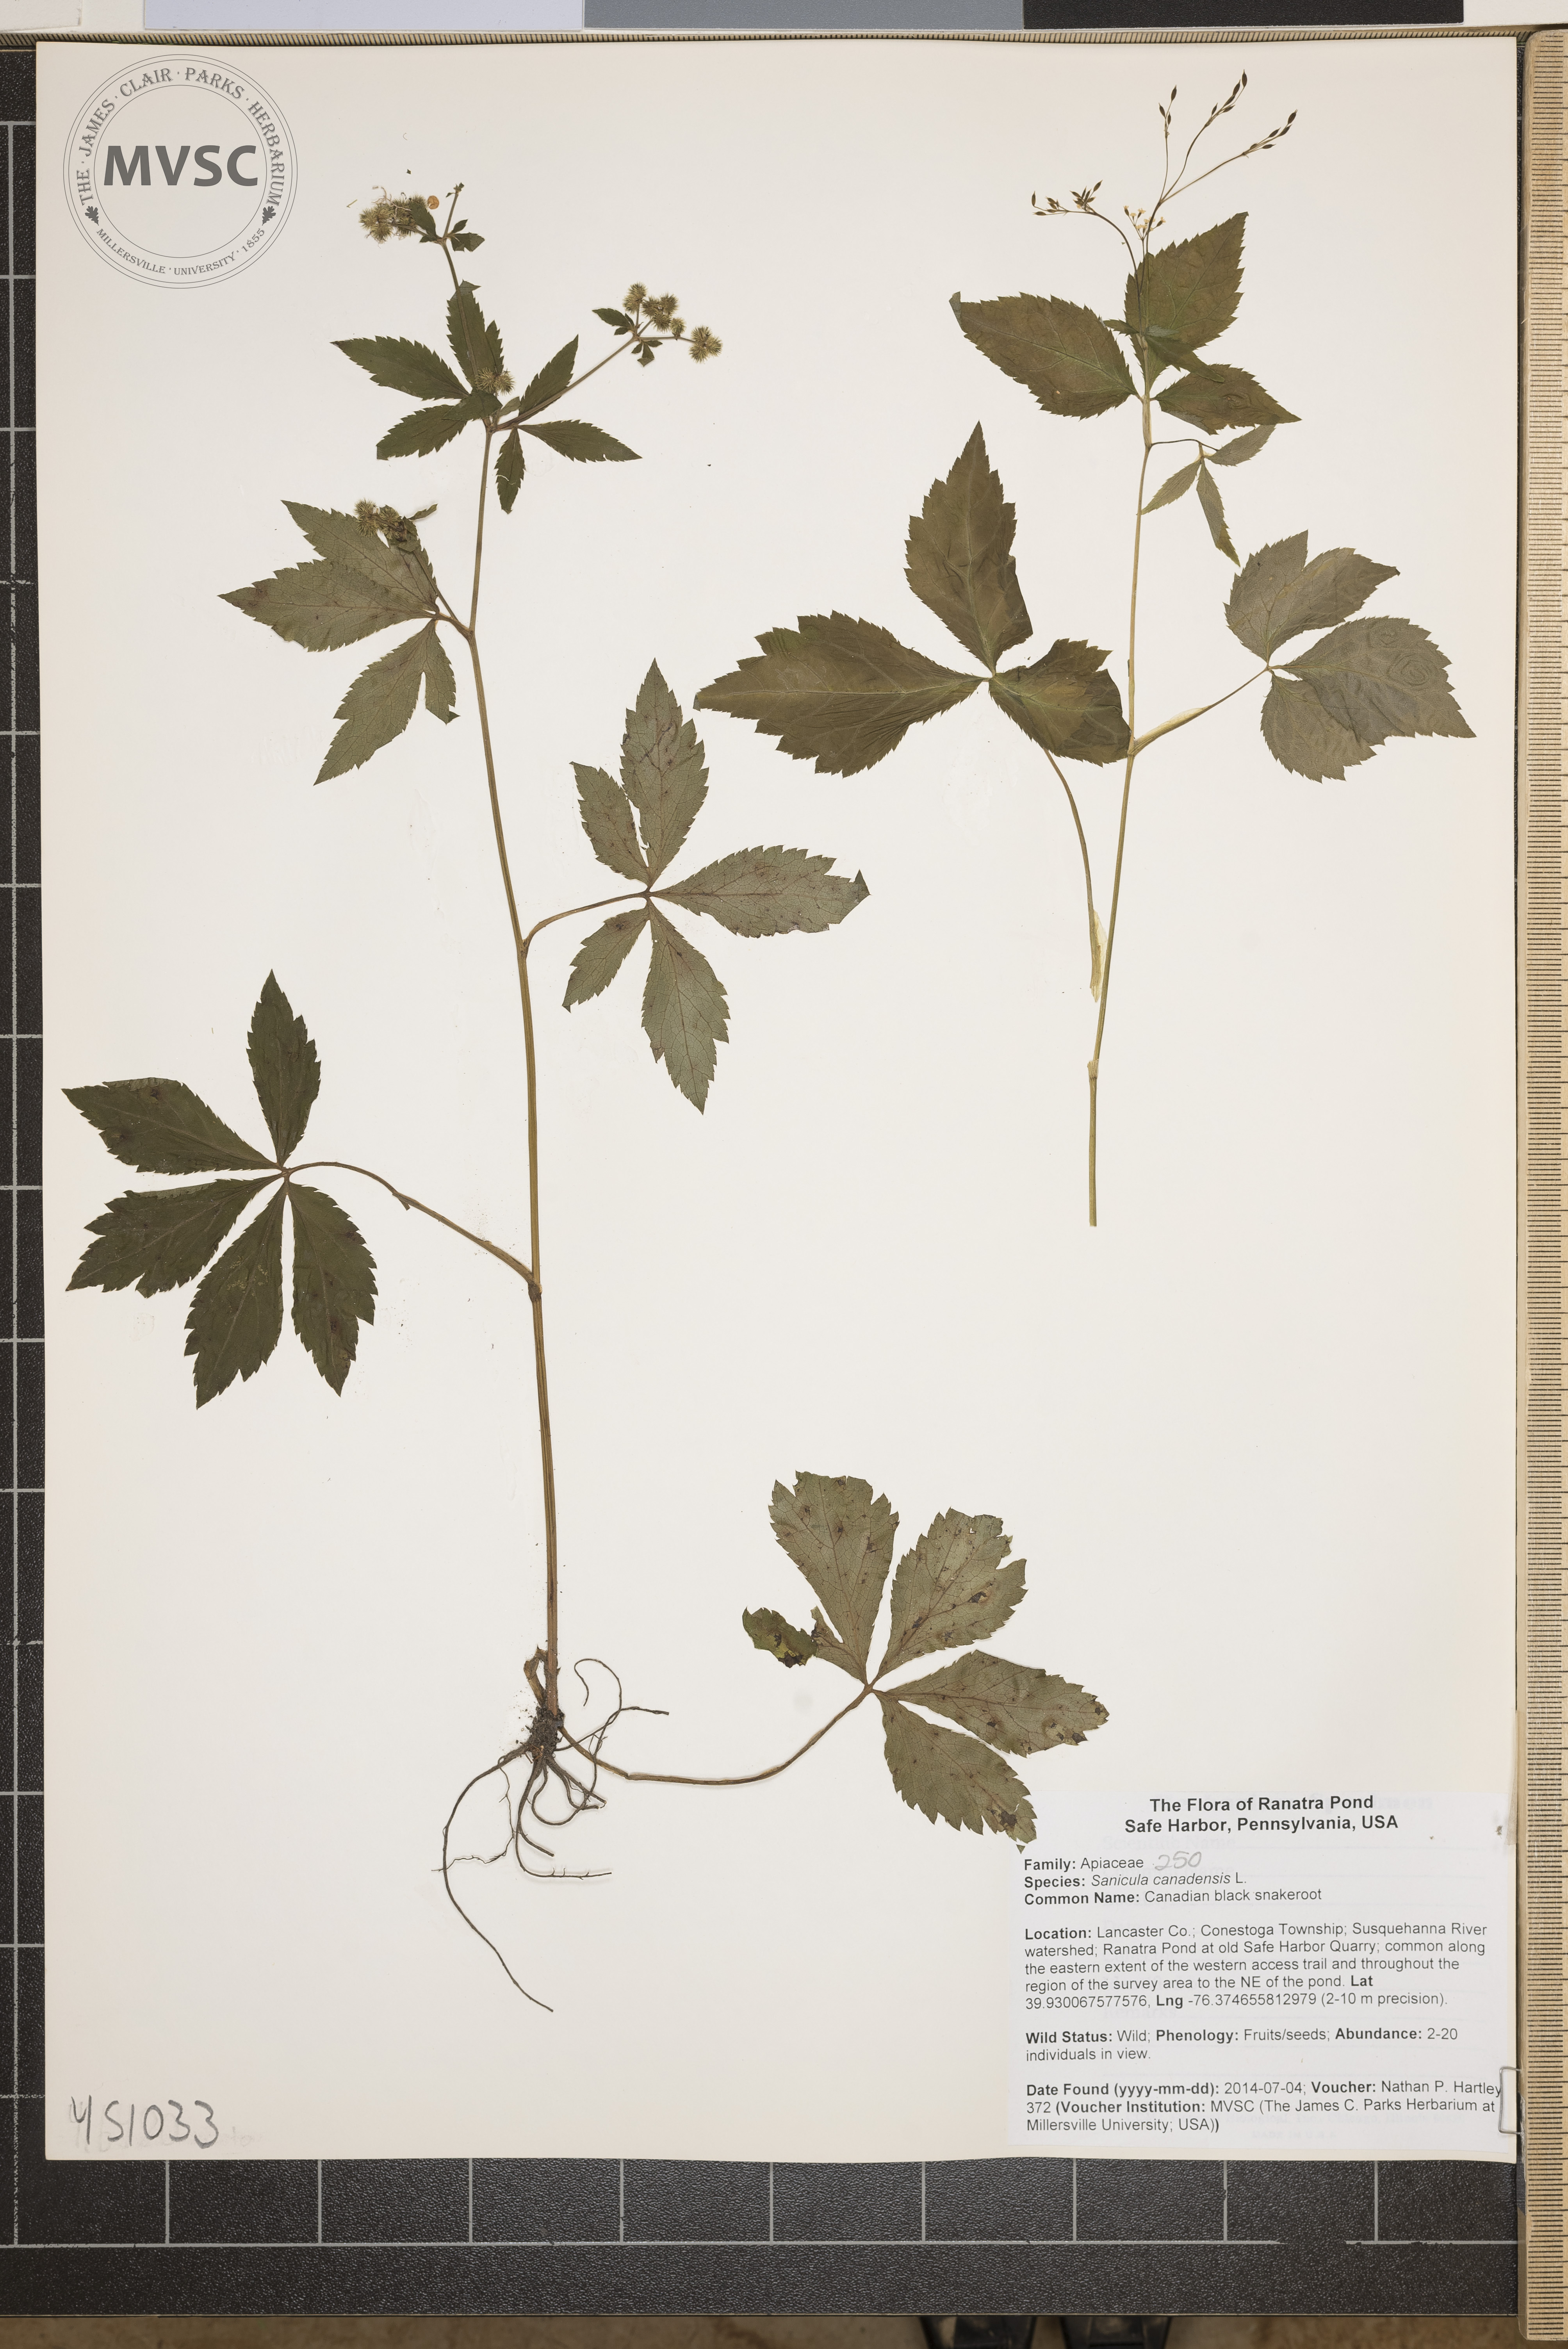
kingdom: Plantae
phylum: Tracheophyta
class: Magnoliopsida
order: Apiales
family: Apiaceae
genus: Sanicula
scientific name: Sanicula canadensis
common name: Canadian black snakeroot
